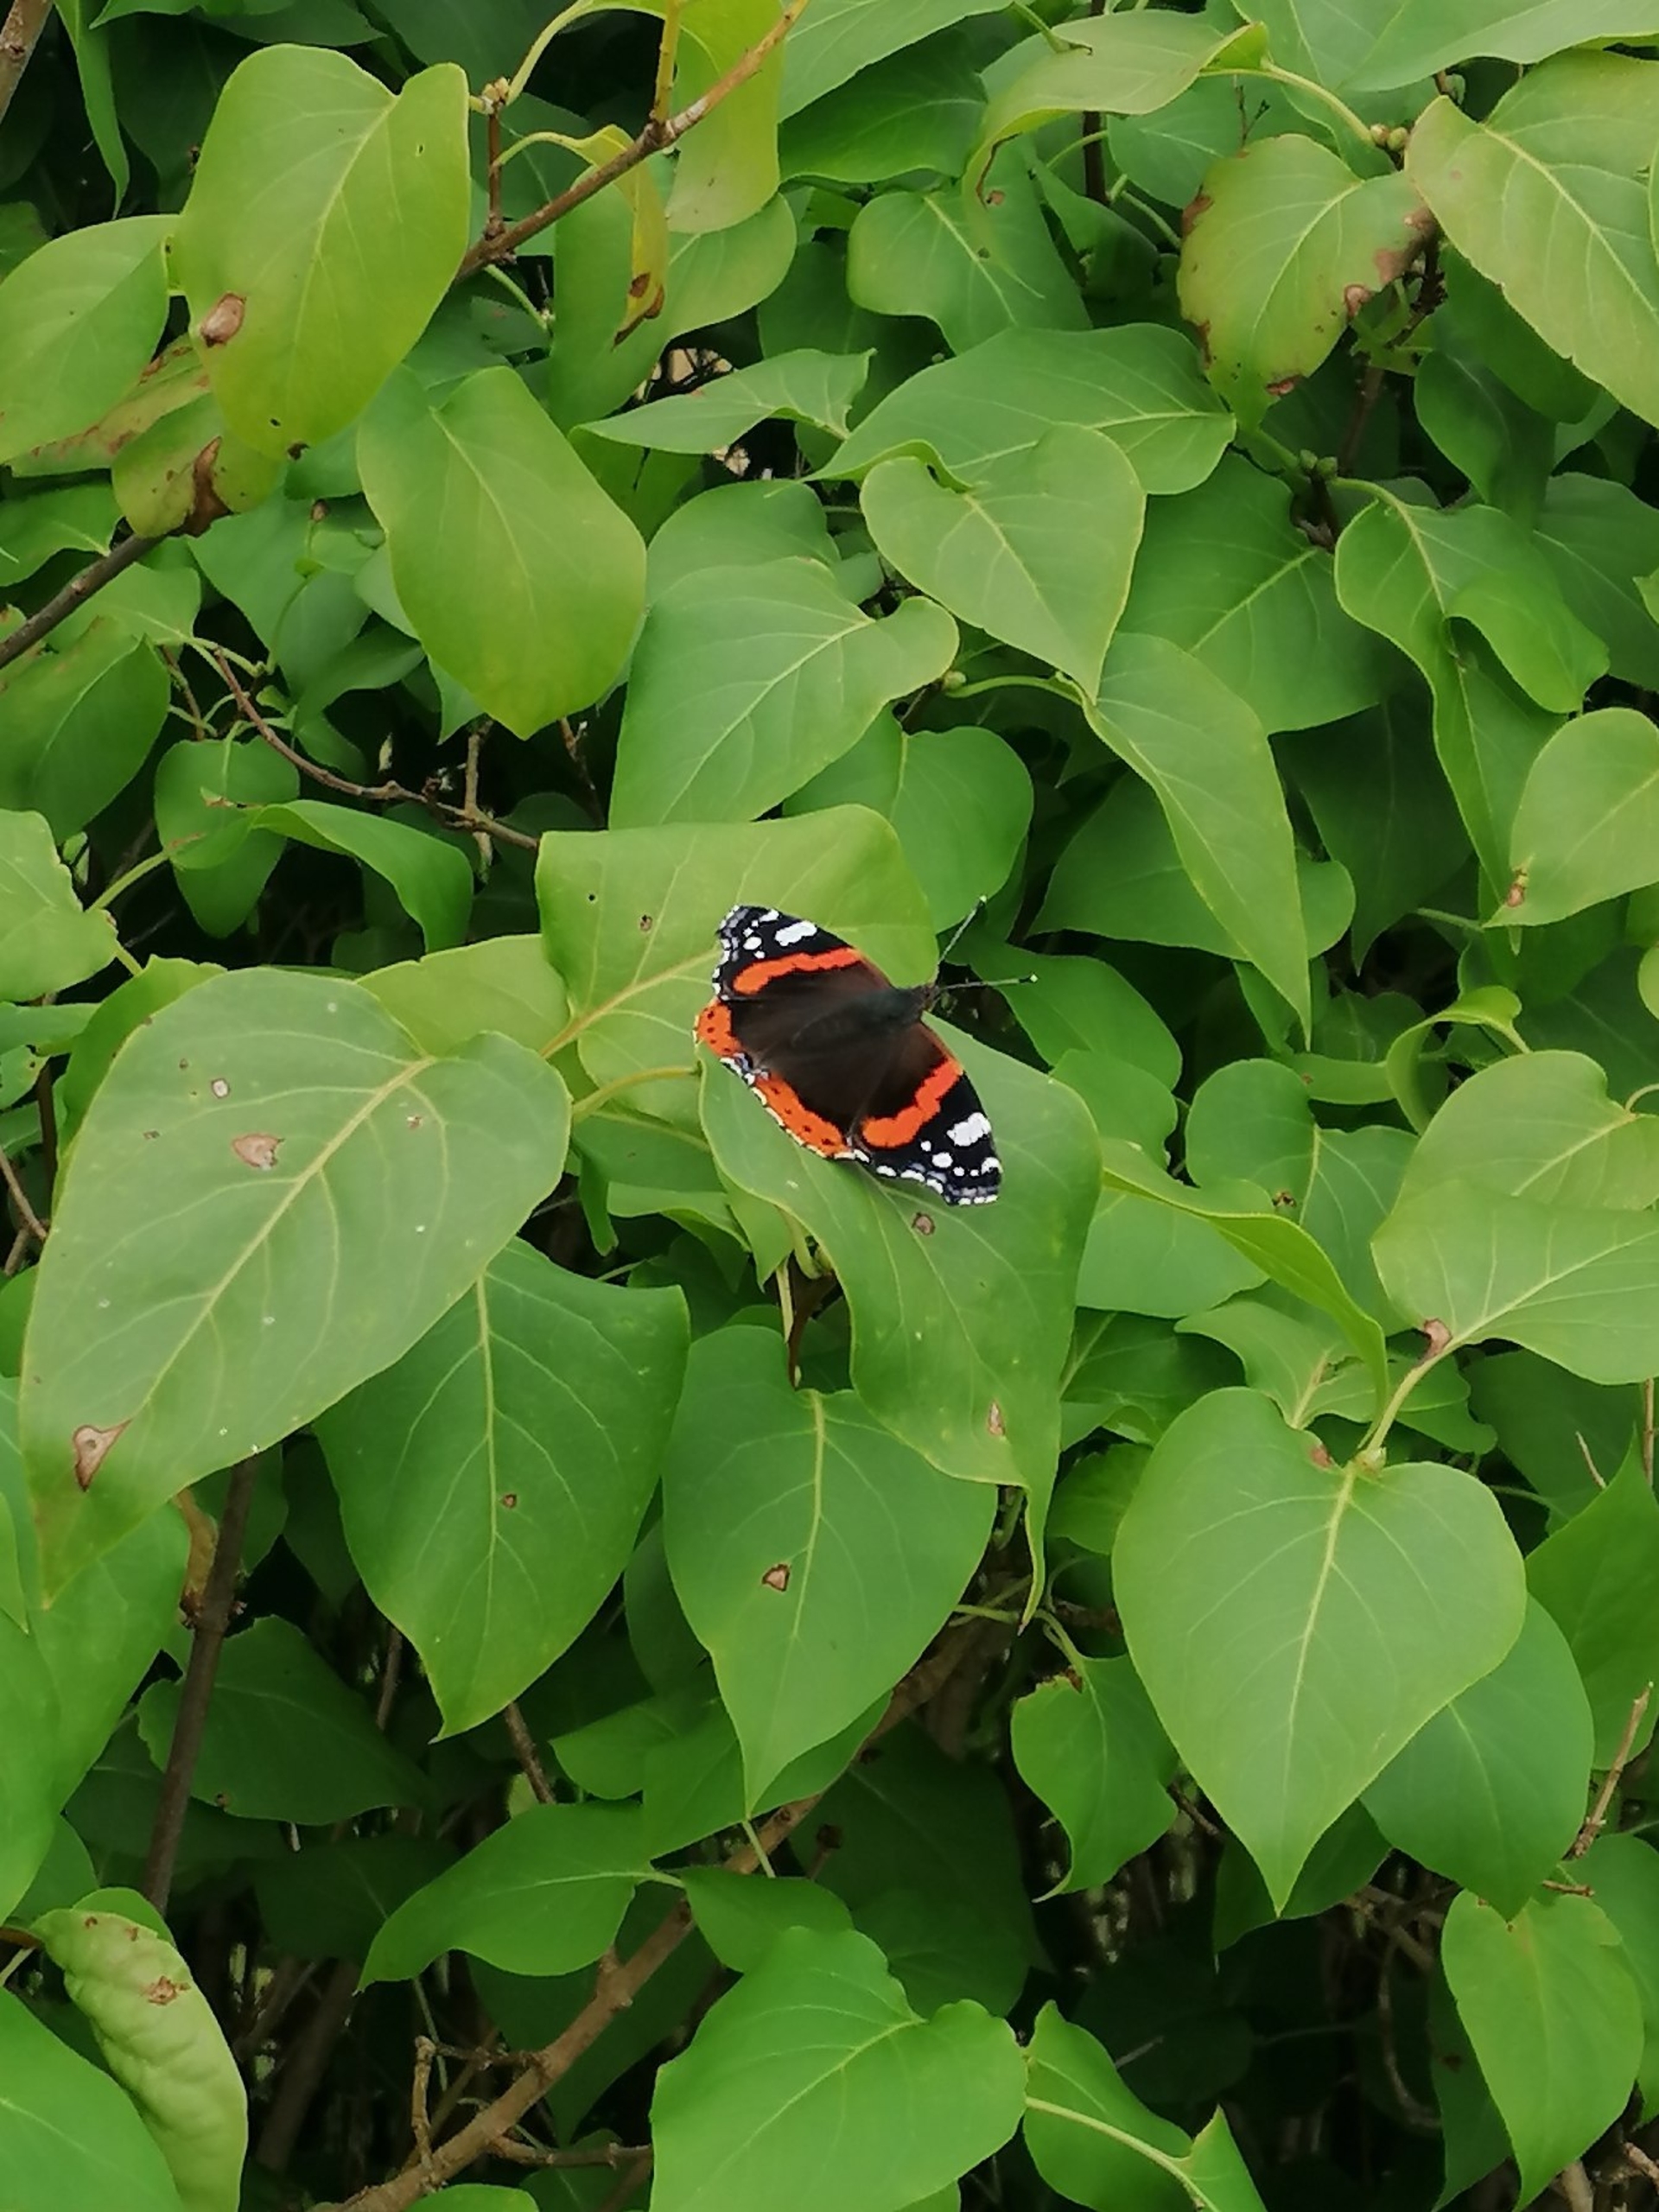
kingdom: Animalia
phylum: Arthropoda
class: Insecta
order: Lepidoptera
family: Nymphalidae
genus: Vanessa
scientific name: Vanessa atalanta
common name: Admiral
